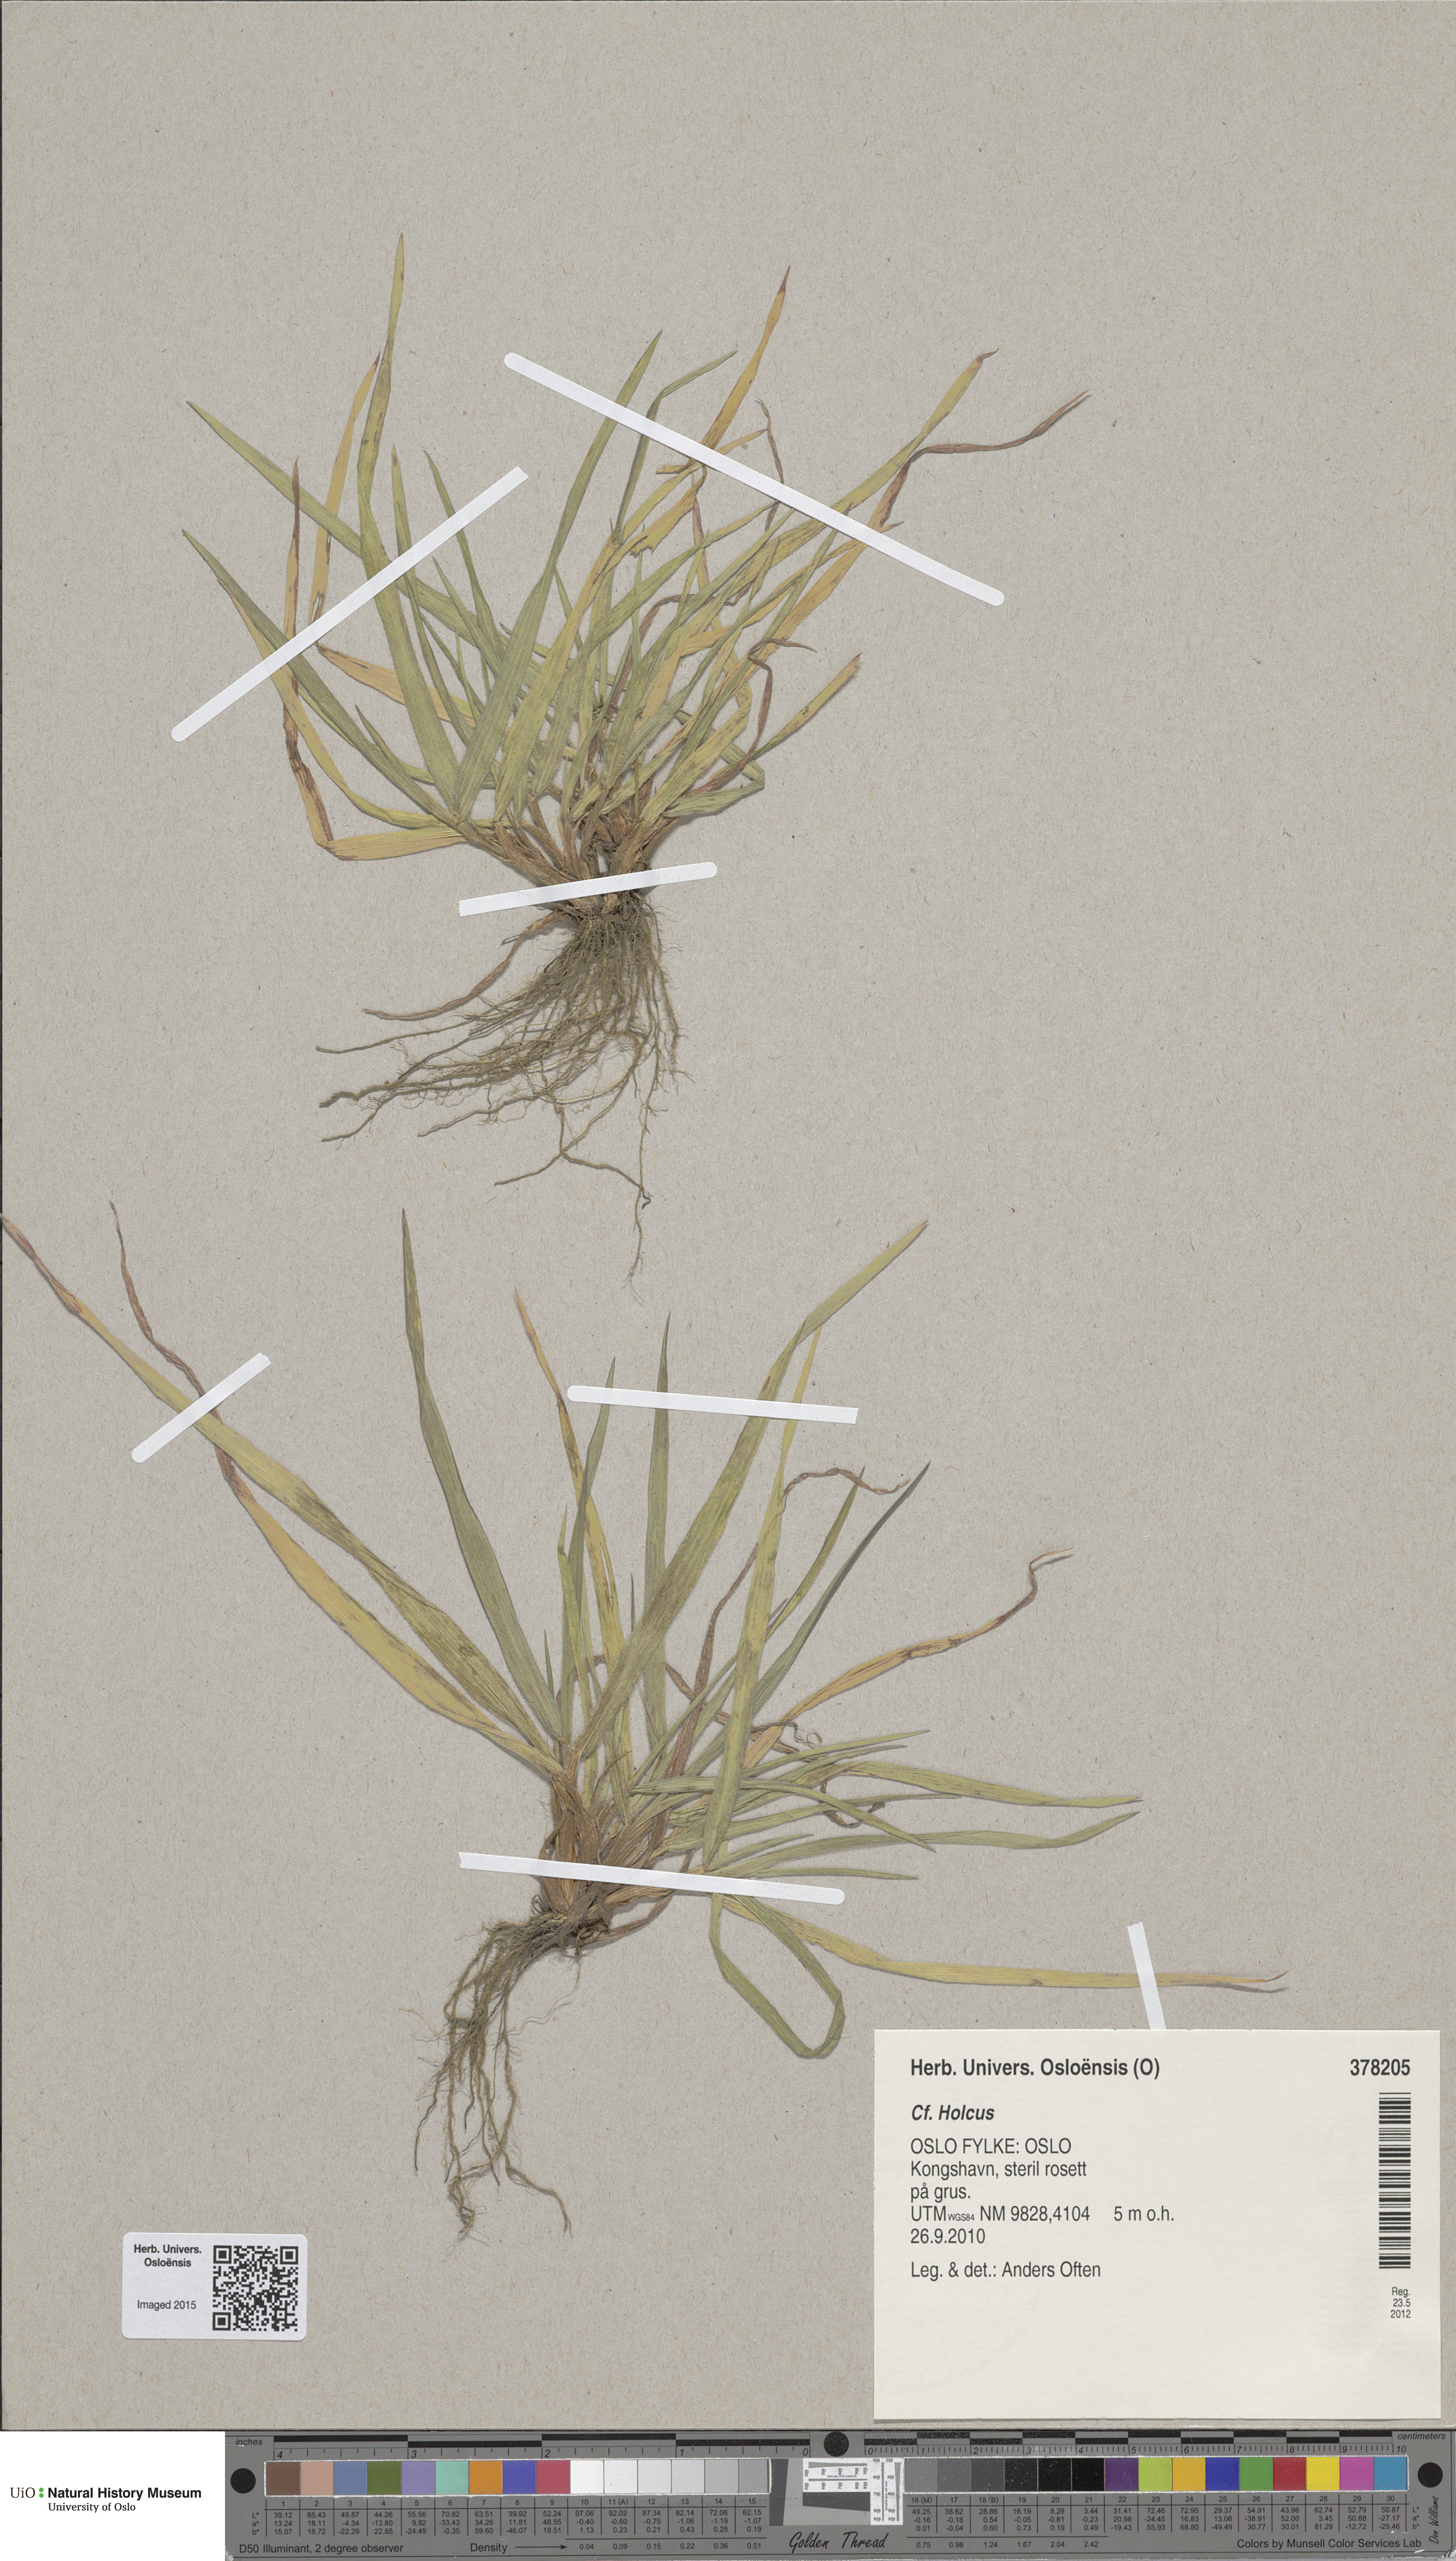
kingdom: Plantae
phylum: Tracheophyta
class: Liliopsida
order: Poales
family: Poaceae
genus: Holcus
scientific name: Holcus
